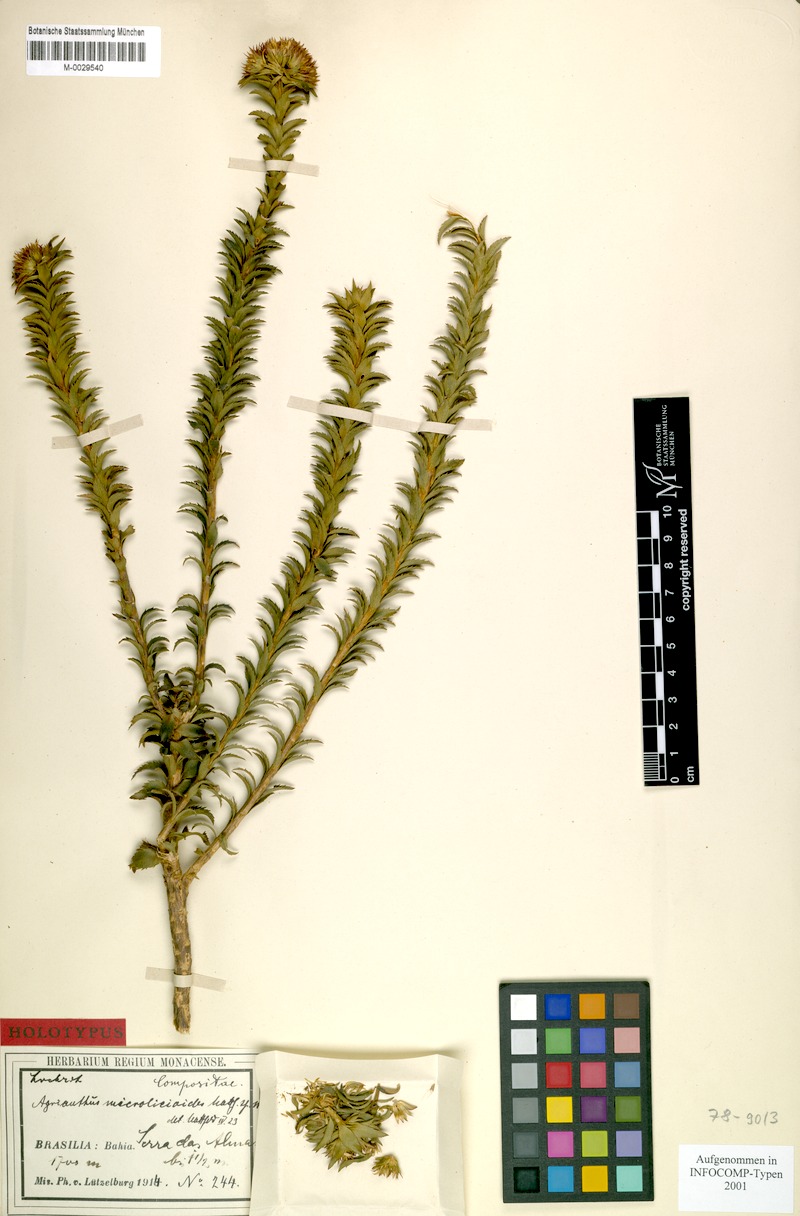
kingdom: Plantae
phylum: Tracheophyta
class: Magnoliopsida
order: Asterales
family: Asteraceae
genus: Agrianthus
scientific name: Agrianthus microlicioides
